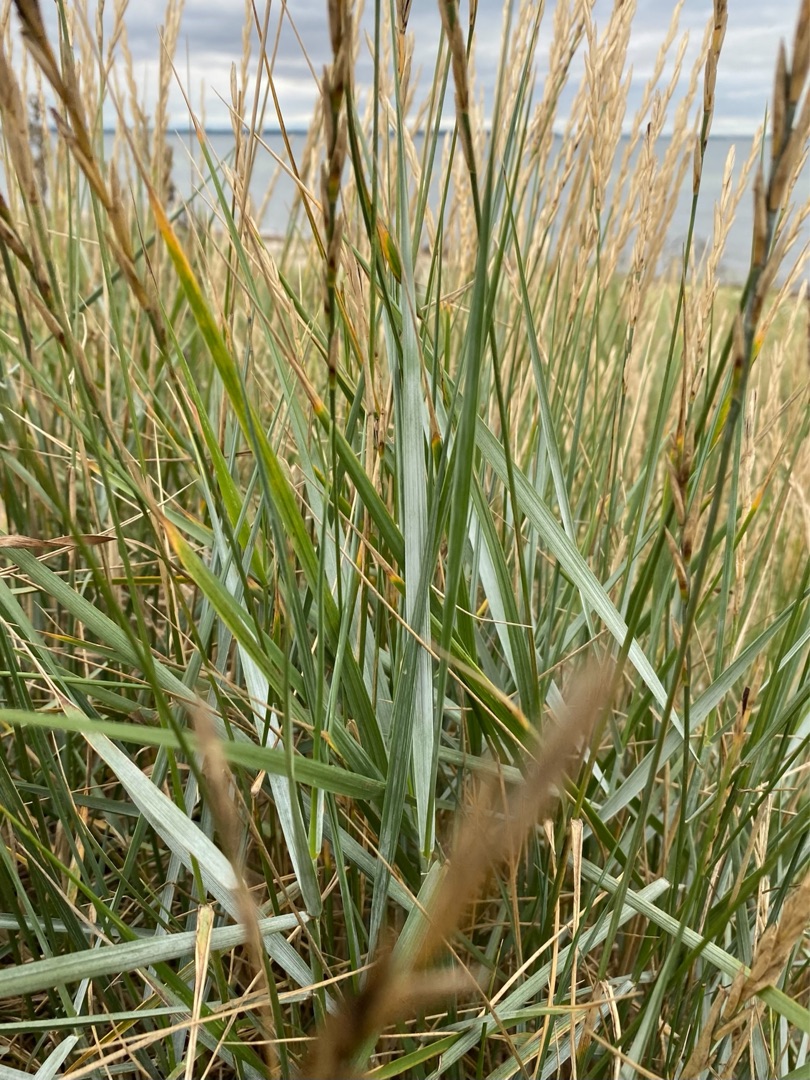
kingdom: Plantae
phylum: Tracheophyta
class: Liliopsida
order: Poales
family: Poaceae
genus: Leymus
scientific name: Leymus arenarius
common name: Marehalm
